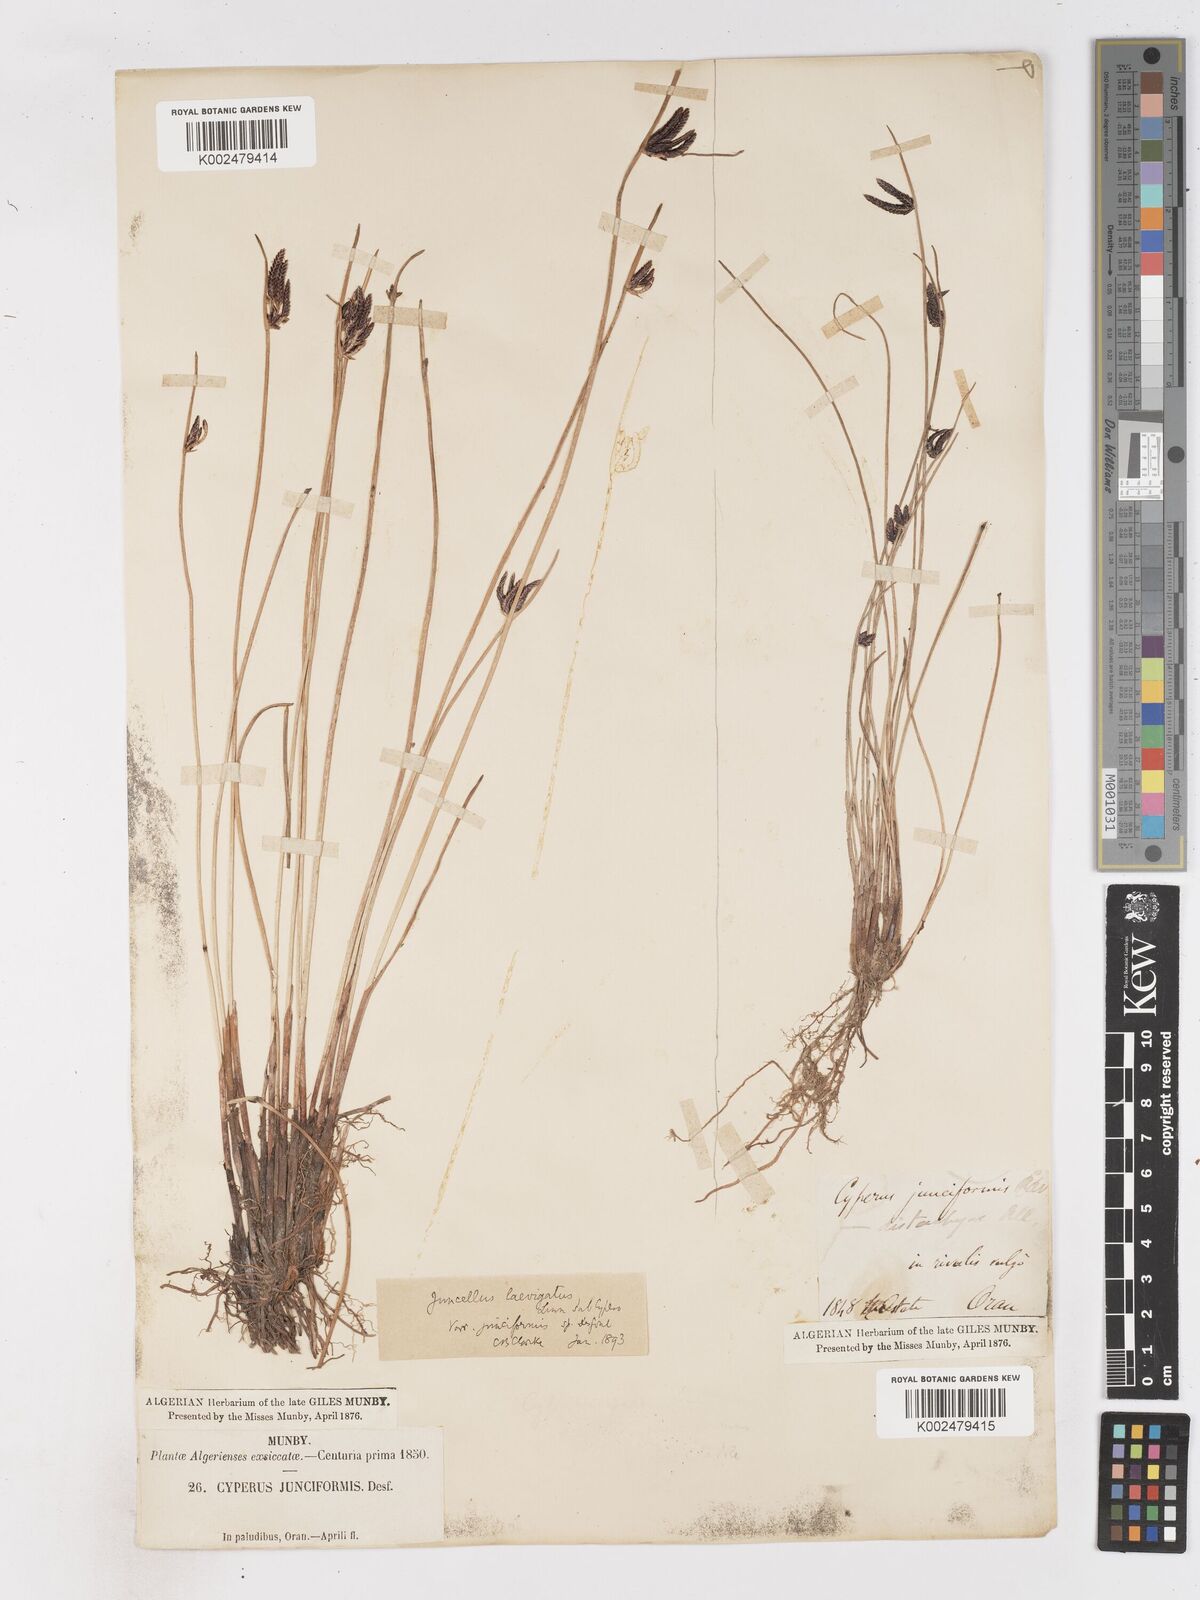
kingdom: Plantae
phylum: Tracheophyta
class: Liliopsida
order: Poales
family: Cyperaceae
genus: Cyperus
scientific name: Cyperus laevigatus
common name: Smooth flat sedge
